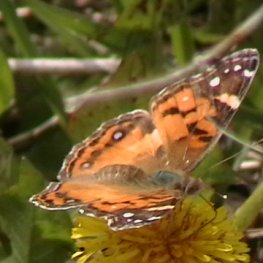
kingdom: Animalia
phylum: Arthropoda
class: Insecta
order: Lepidoptera
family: Nymphalidae
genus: Vanessa
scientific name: Vanessa virginiensis
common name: American Lady
